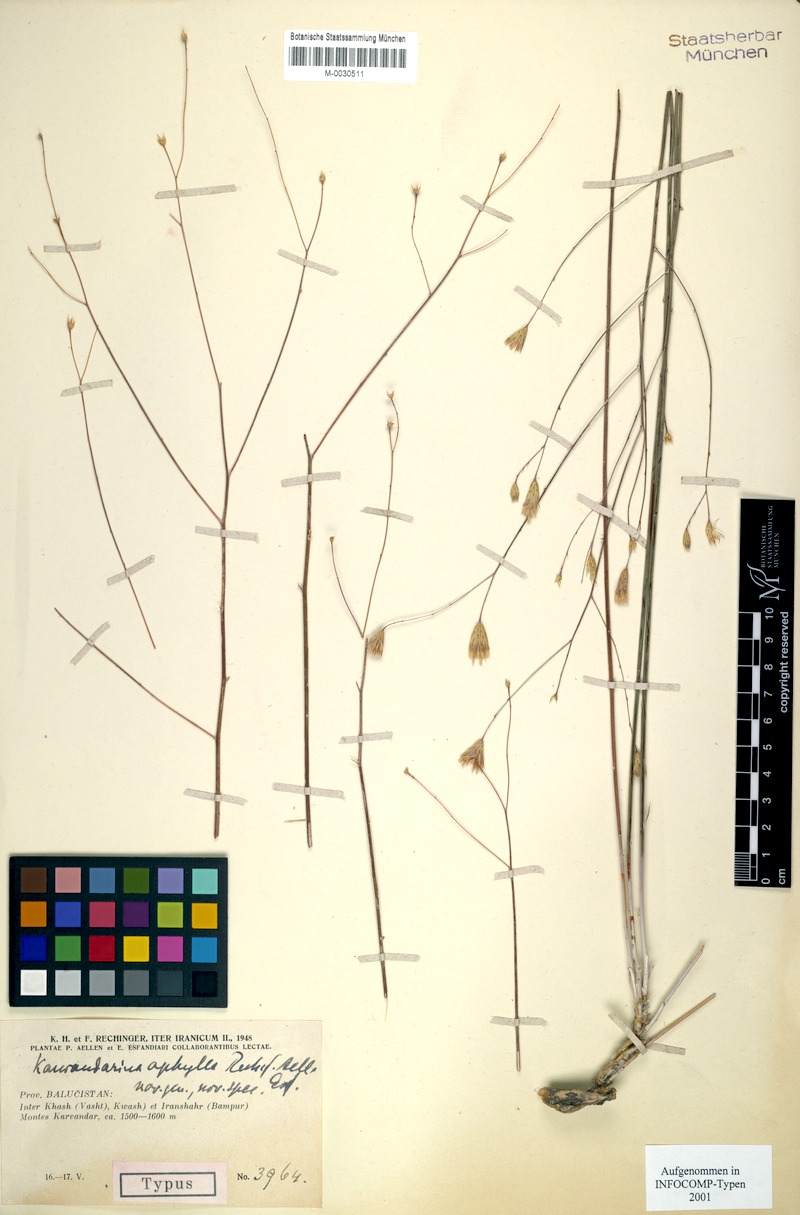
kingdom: Plantae
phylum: Tracheophyta
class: Magnoliopsida
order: Asterales
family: Asteraceae
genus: Karvandarina
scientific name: Karvandarina aphylla
